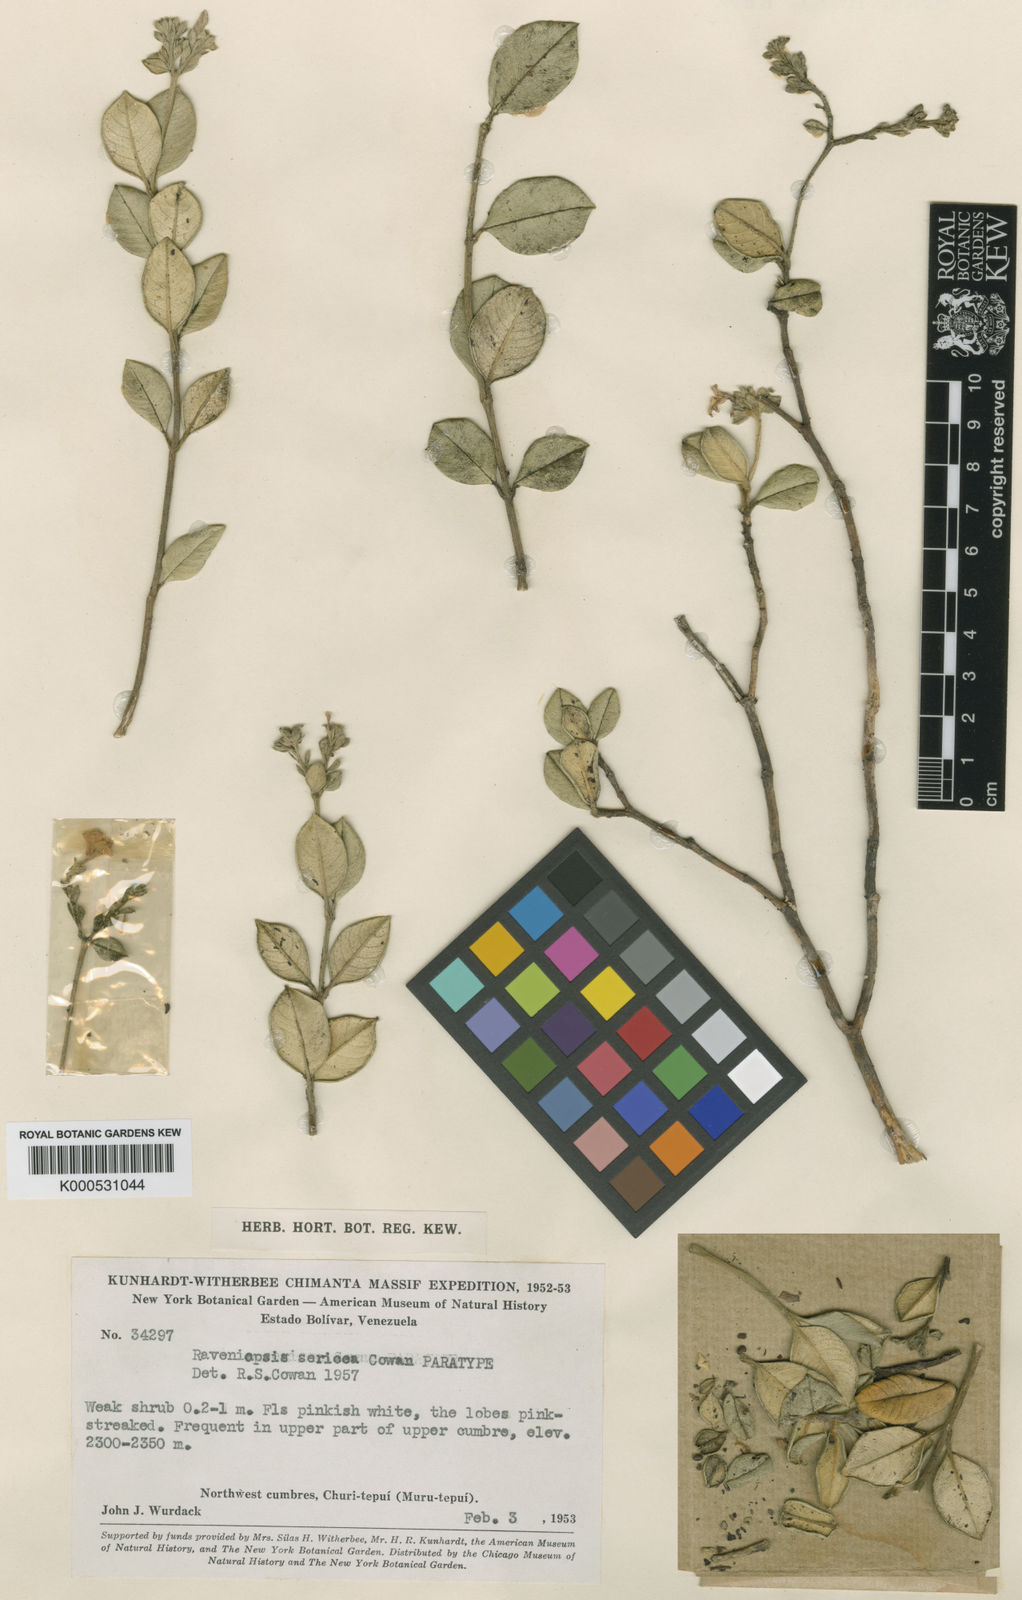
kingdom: Plantae
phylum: Tracheophyta
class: Magnoliopsida
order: Sapindales
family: Rutaceae
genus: Raveniopsis
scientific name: Raveniopsis sericea
